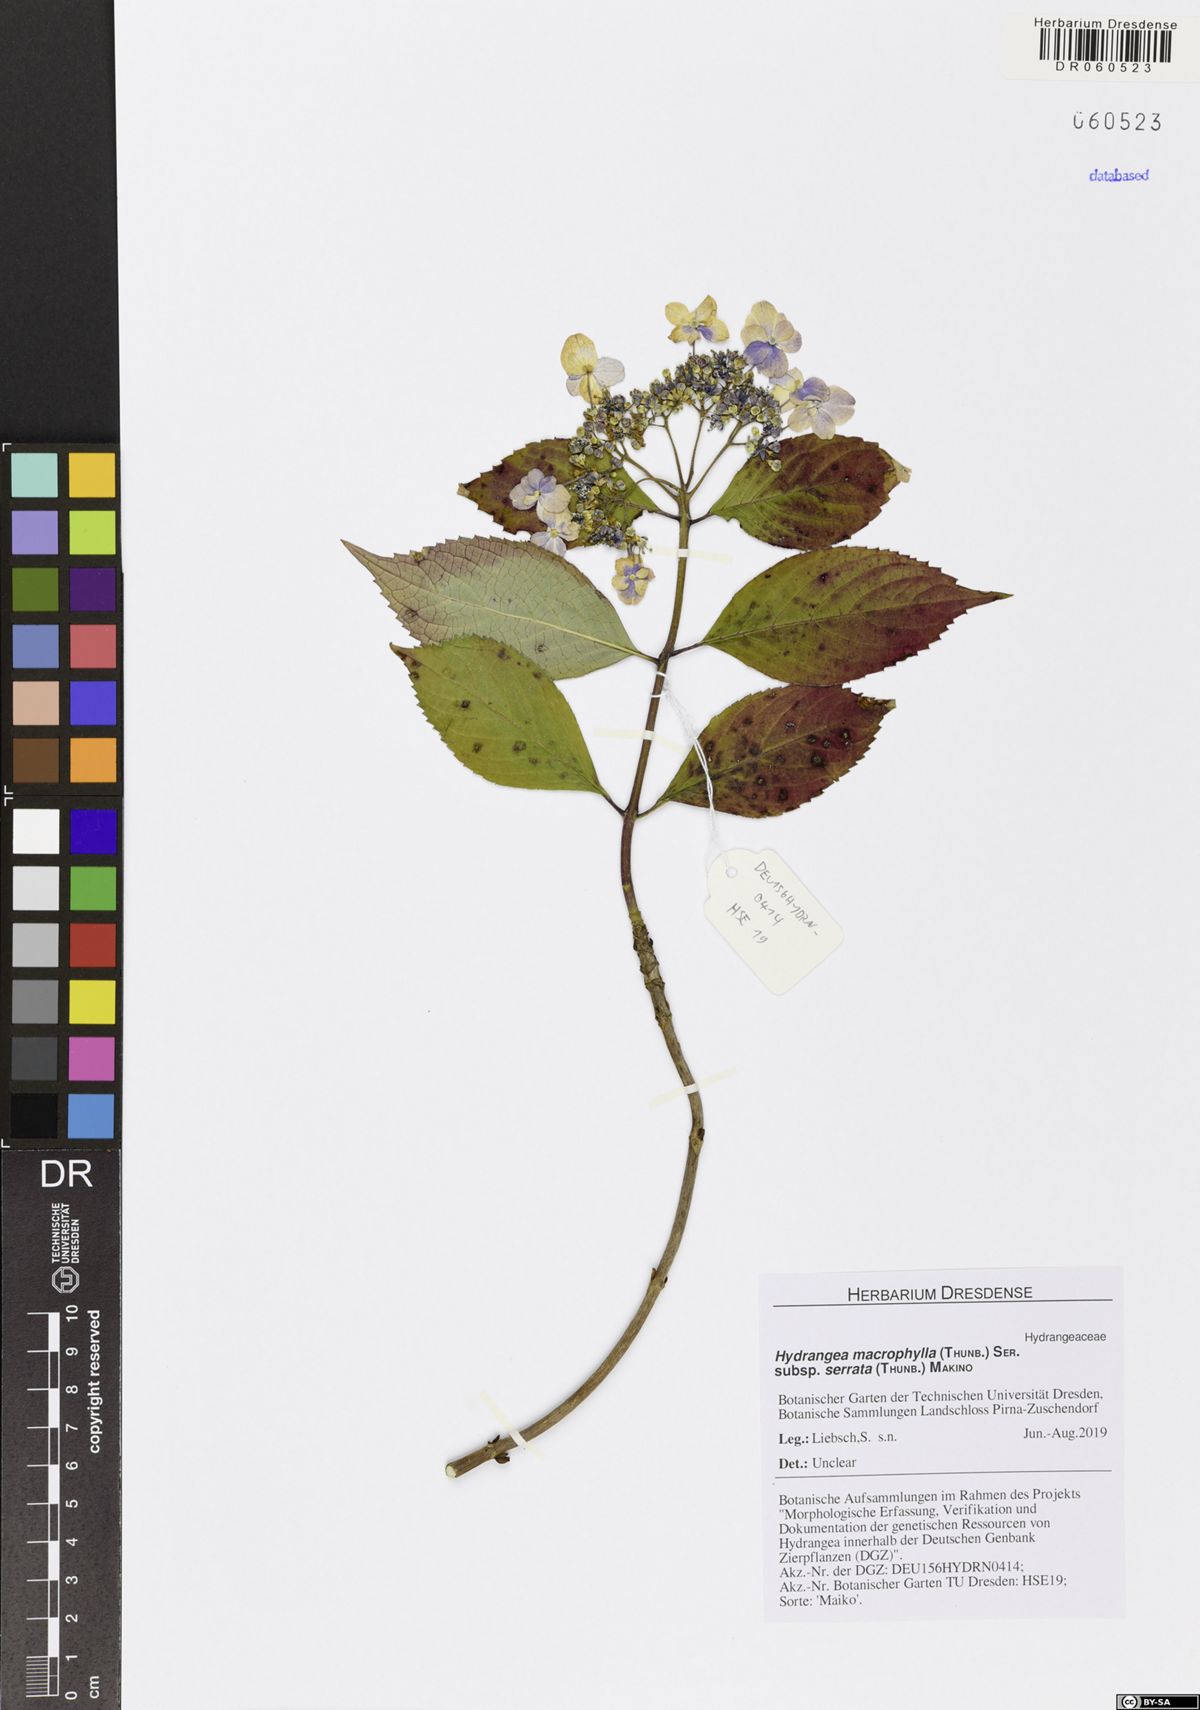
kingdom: Plantae
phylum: Tracheophyta
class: Magnoliopsida
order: Cornales
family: Hydrangeaceae
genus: Hydrangea
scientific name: Hydrangea serrata
